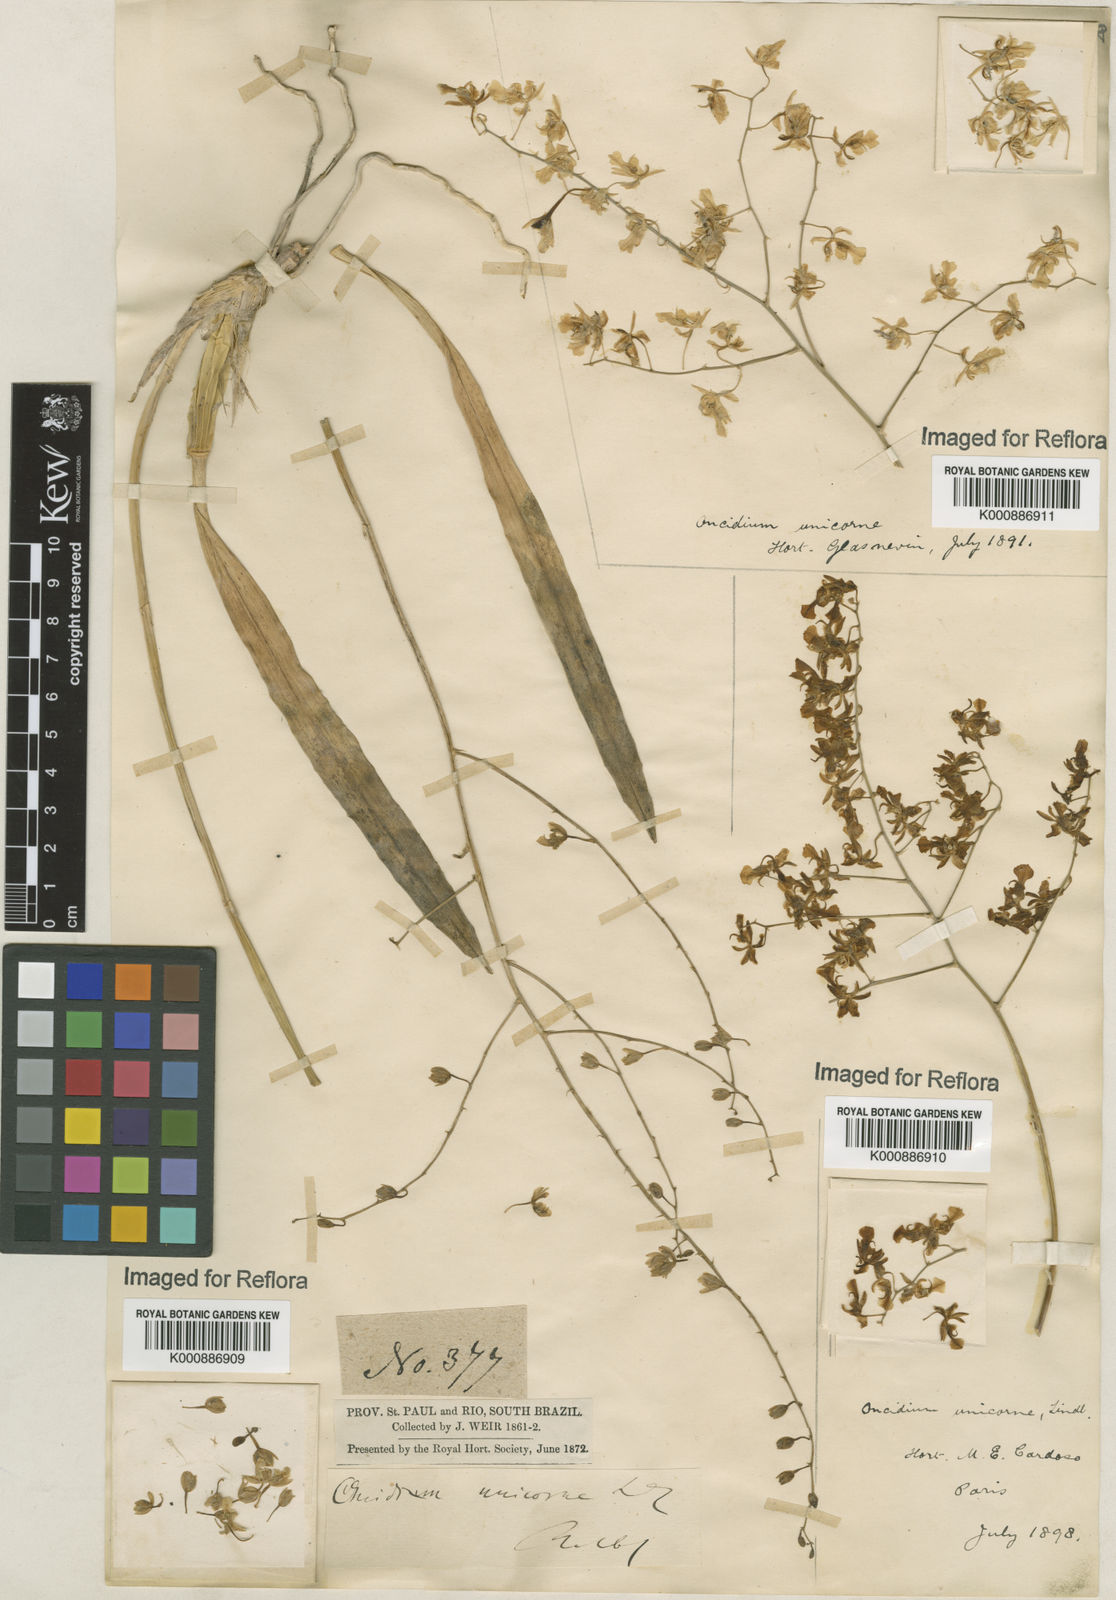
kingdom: Plantae
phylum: Tracheophyta
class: Liliopsida
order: Asparagales
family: Orchidaceae
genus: Gomesa
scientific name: Gomesa florida
